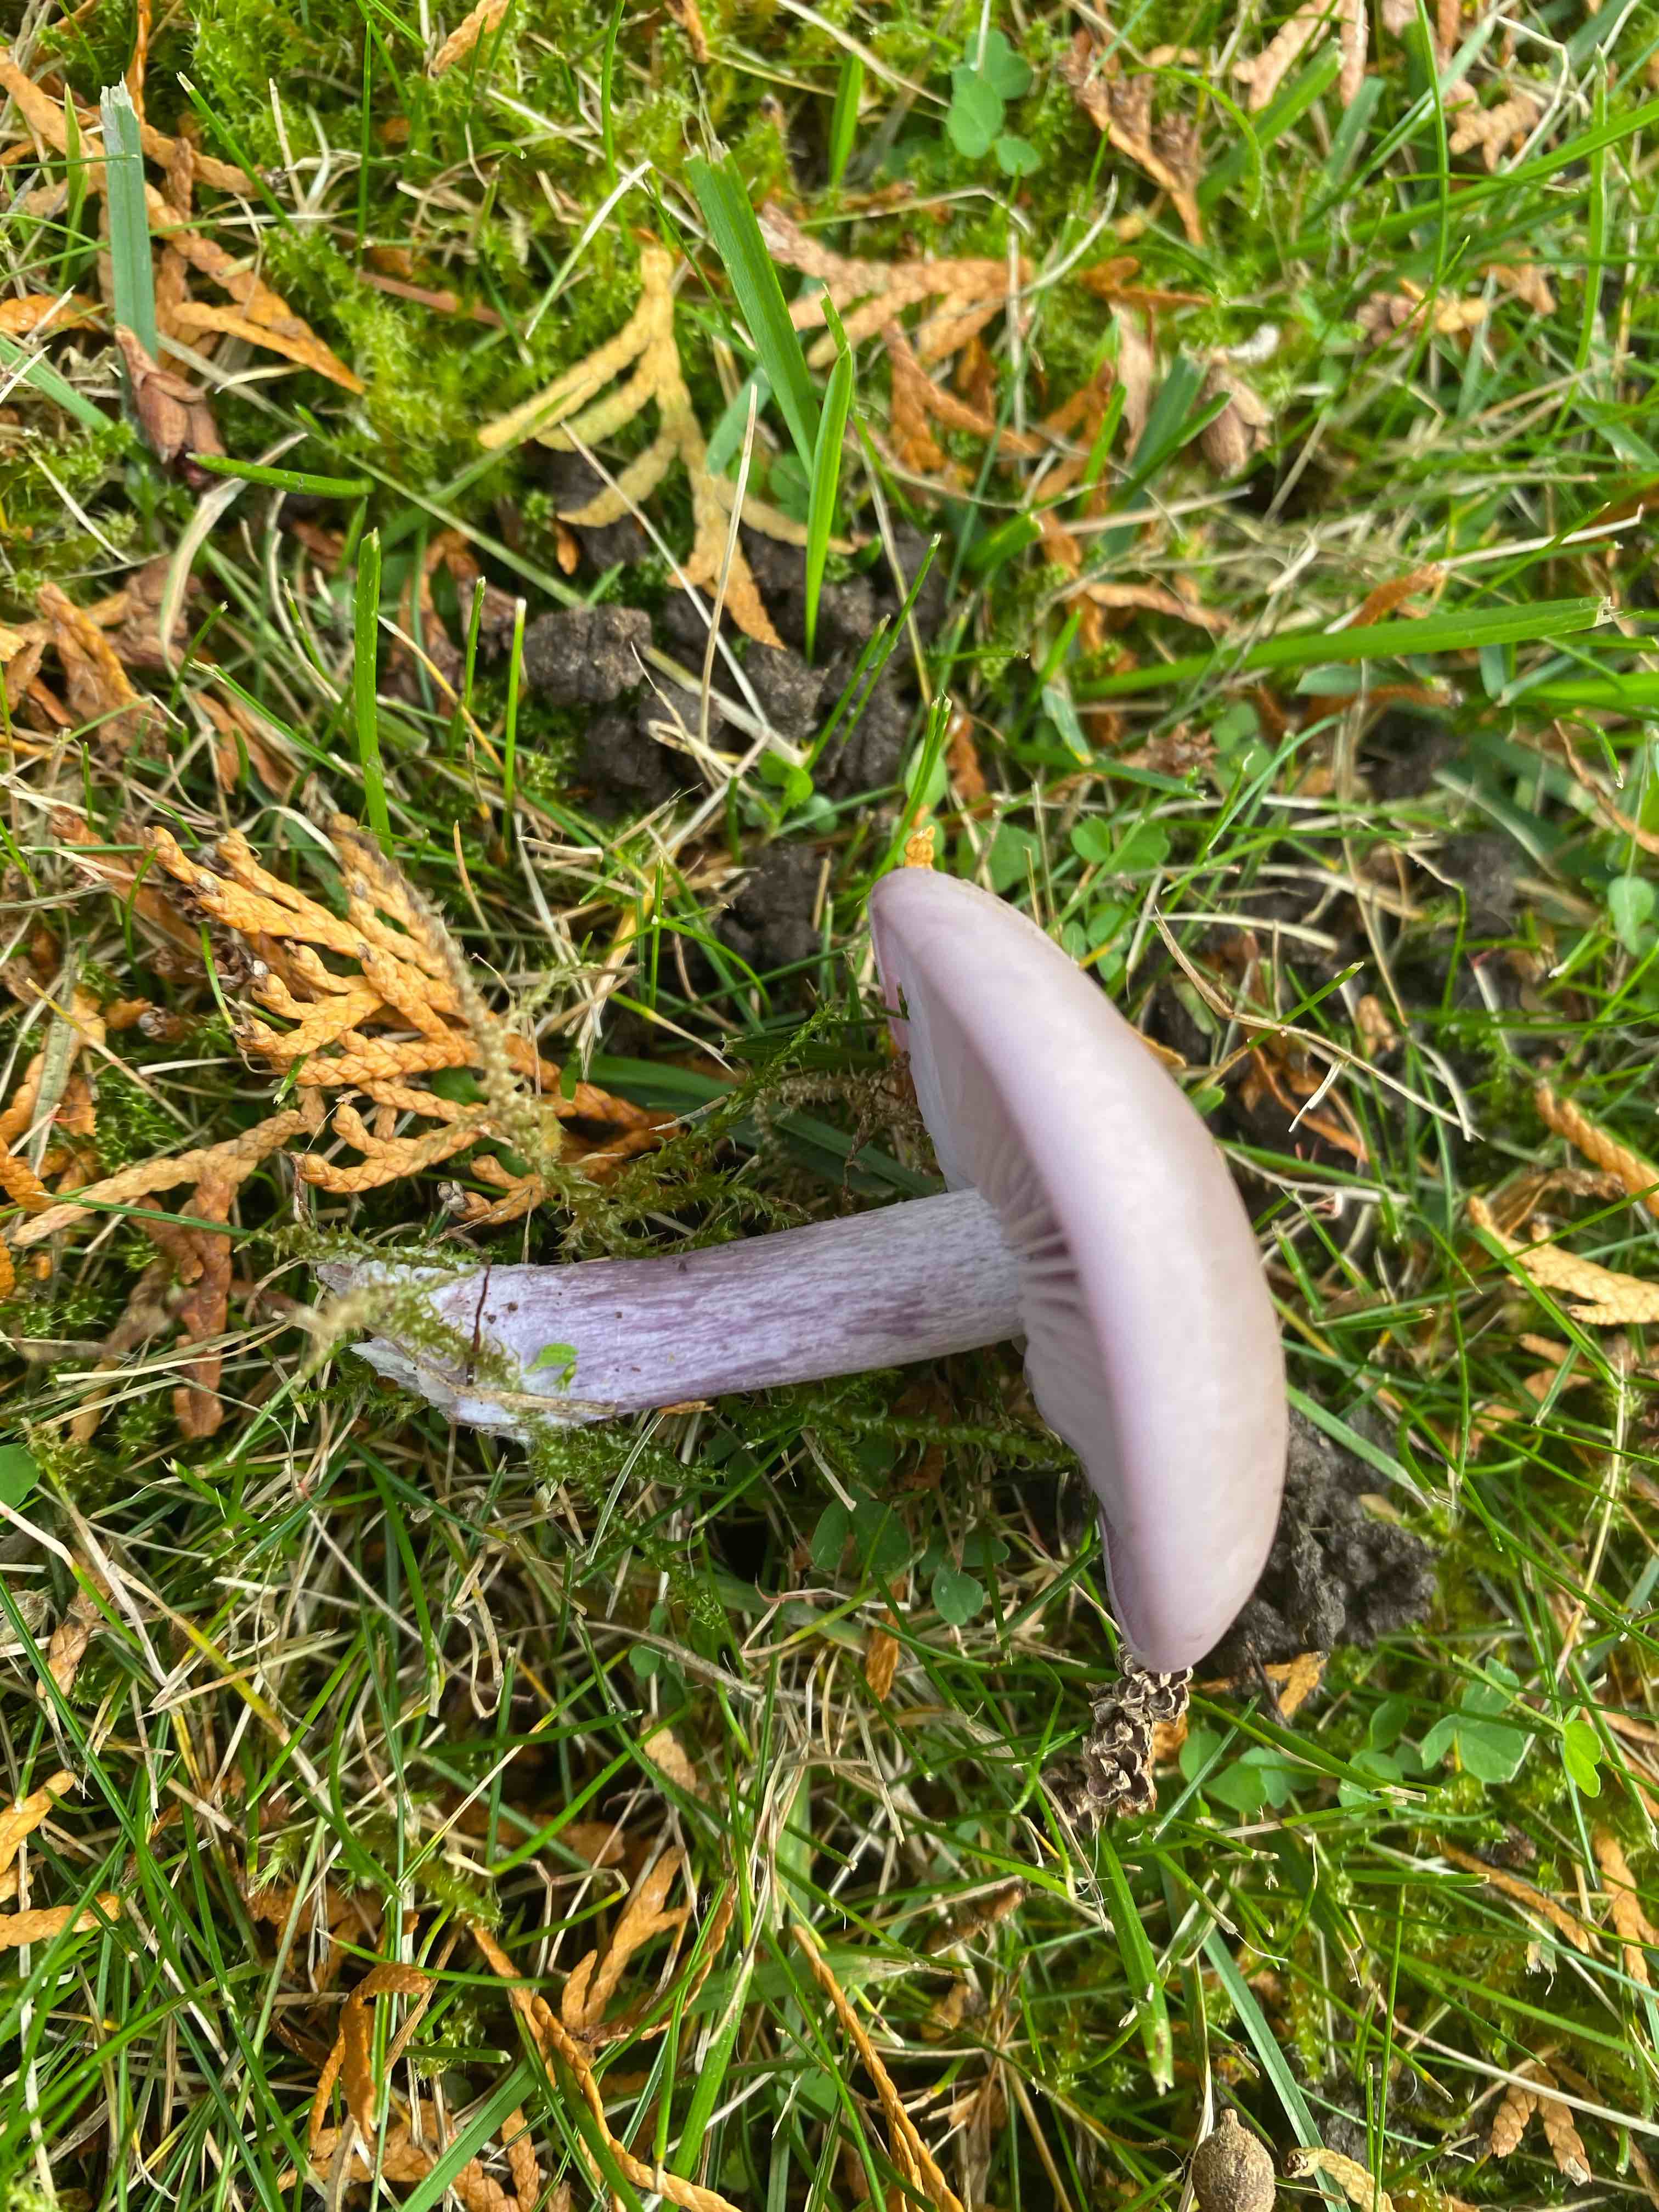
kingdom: Fungi
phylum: Basidiomycota
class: Agaricomycetes
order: Agaricales
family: Tricholomataceae
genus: Lepista
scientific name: Lepista nuda
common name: violet hekseringshat
